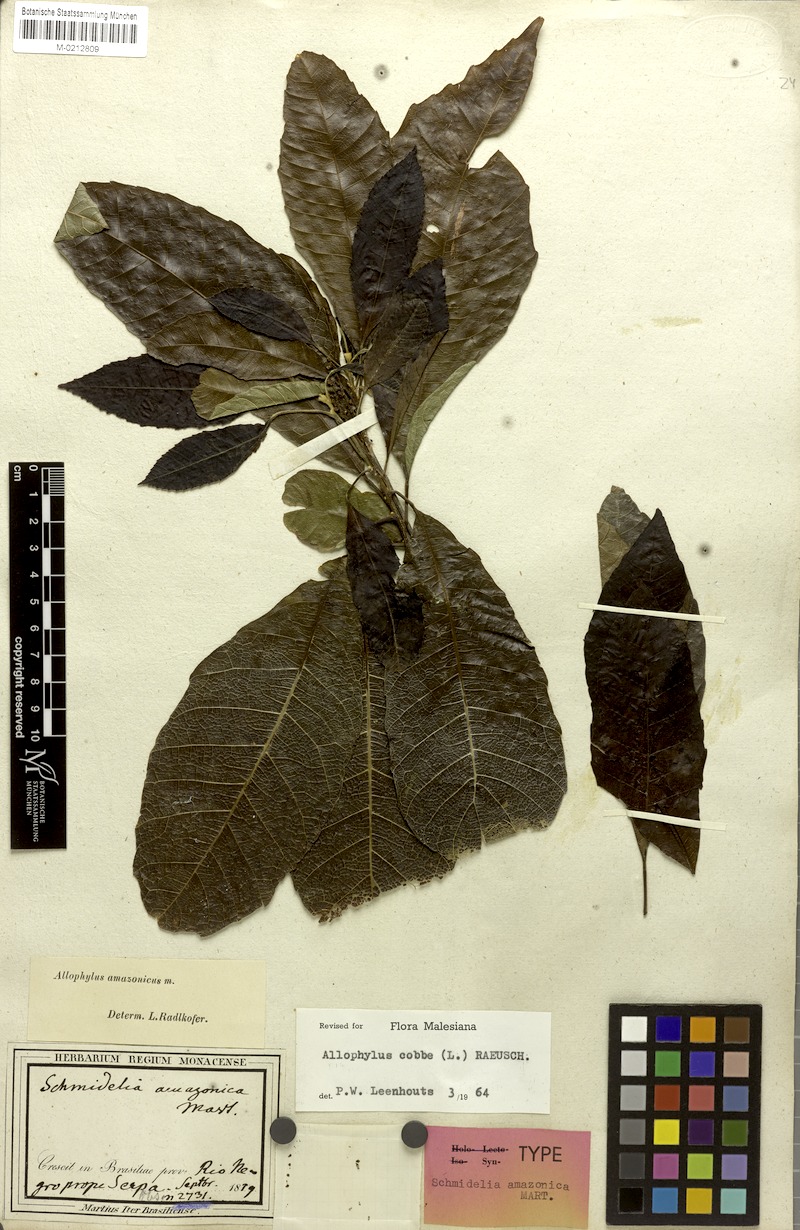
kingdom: Plantae
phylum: Tracheophyta
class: Magnoliopsida
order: Sapindales
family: Sapindaceae
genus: Allophylus
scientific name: Allophylus amazonicus
